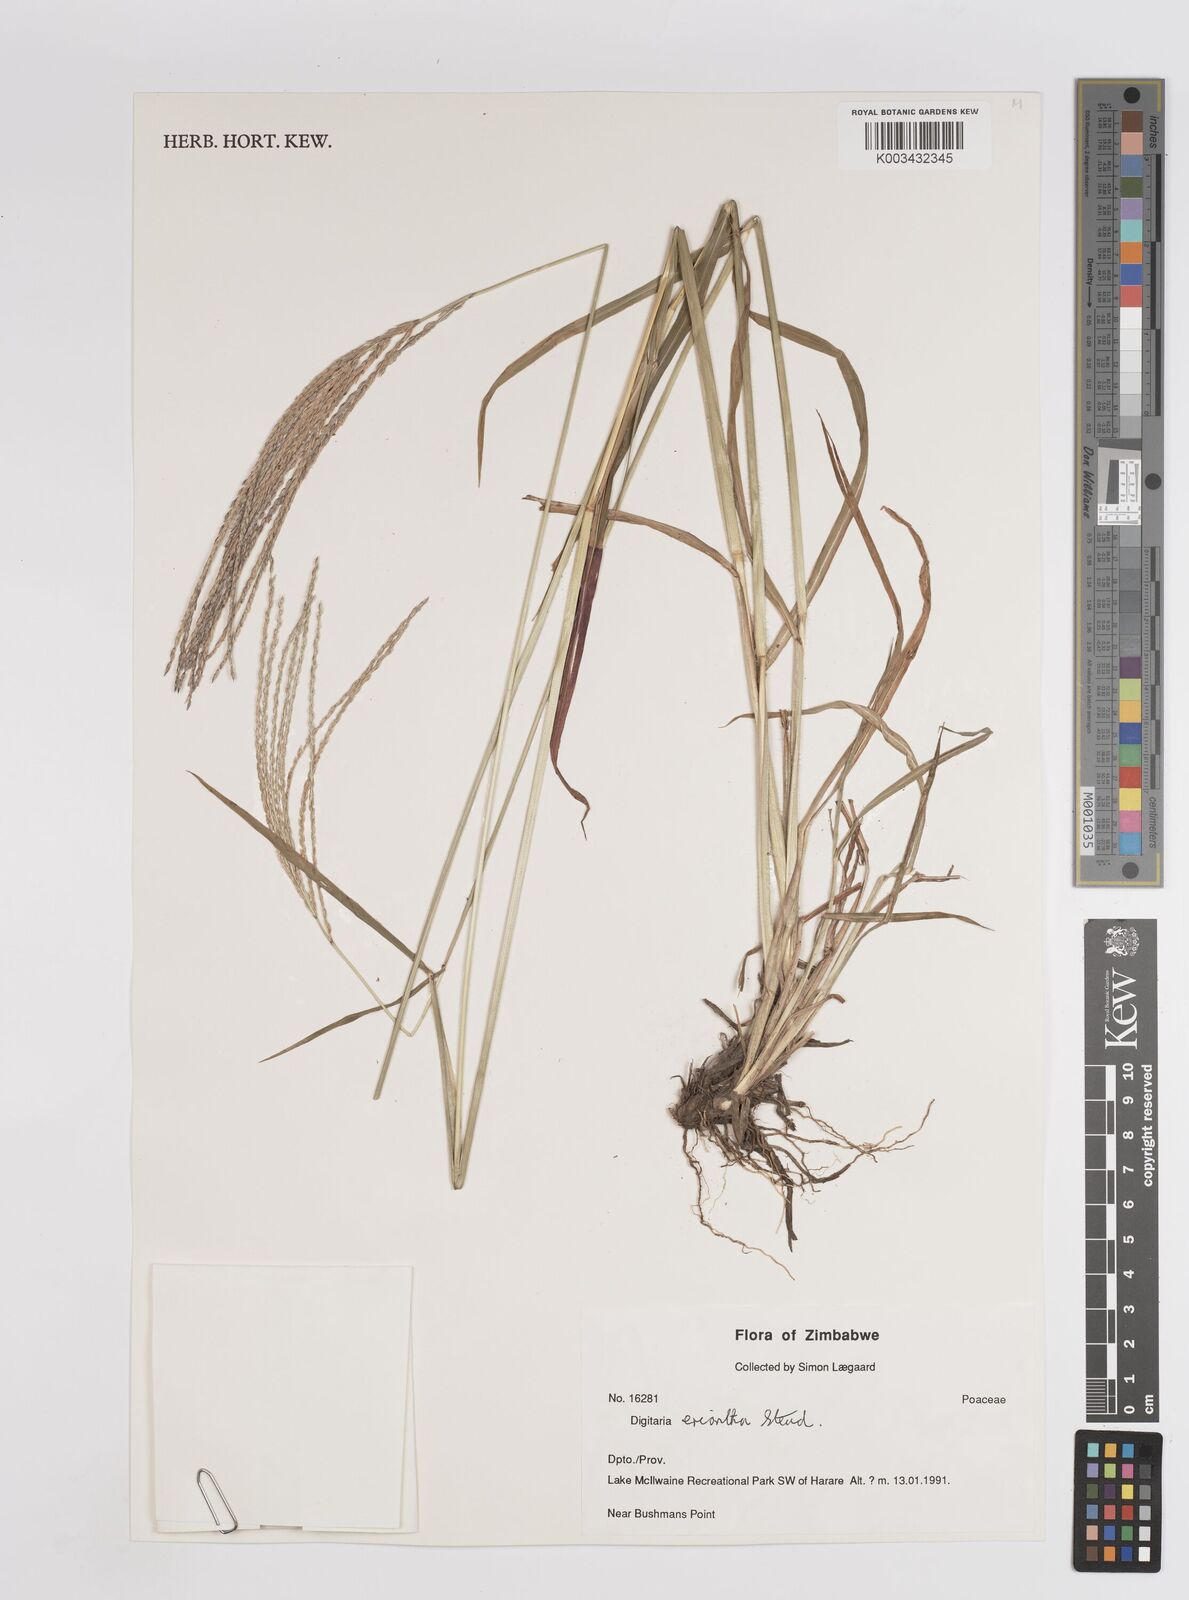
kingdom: Plantae
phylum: Tracheophyta
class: Liliopsida
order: Poales
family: Poaceae
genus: Digitaria
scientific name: Digitaria eriantha
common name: Digitgrass
